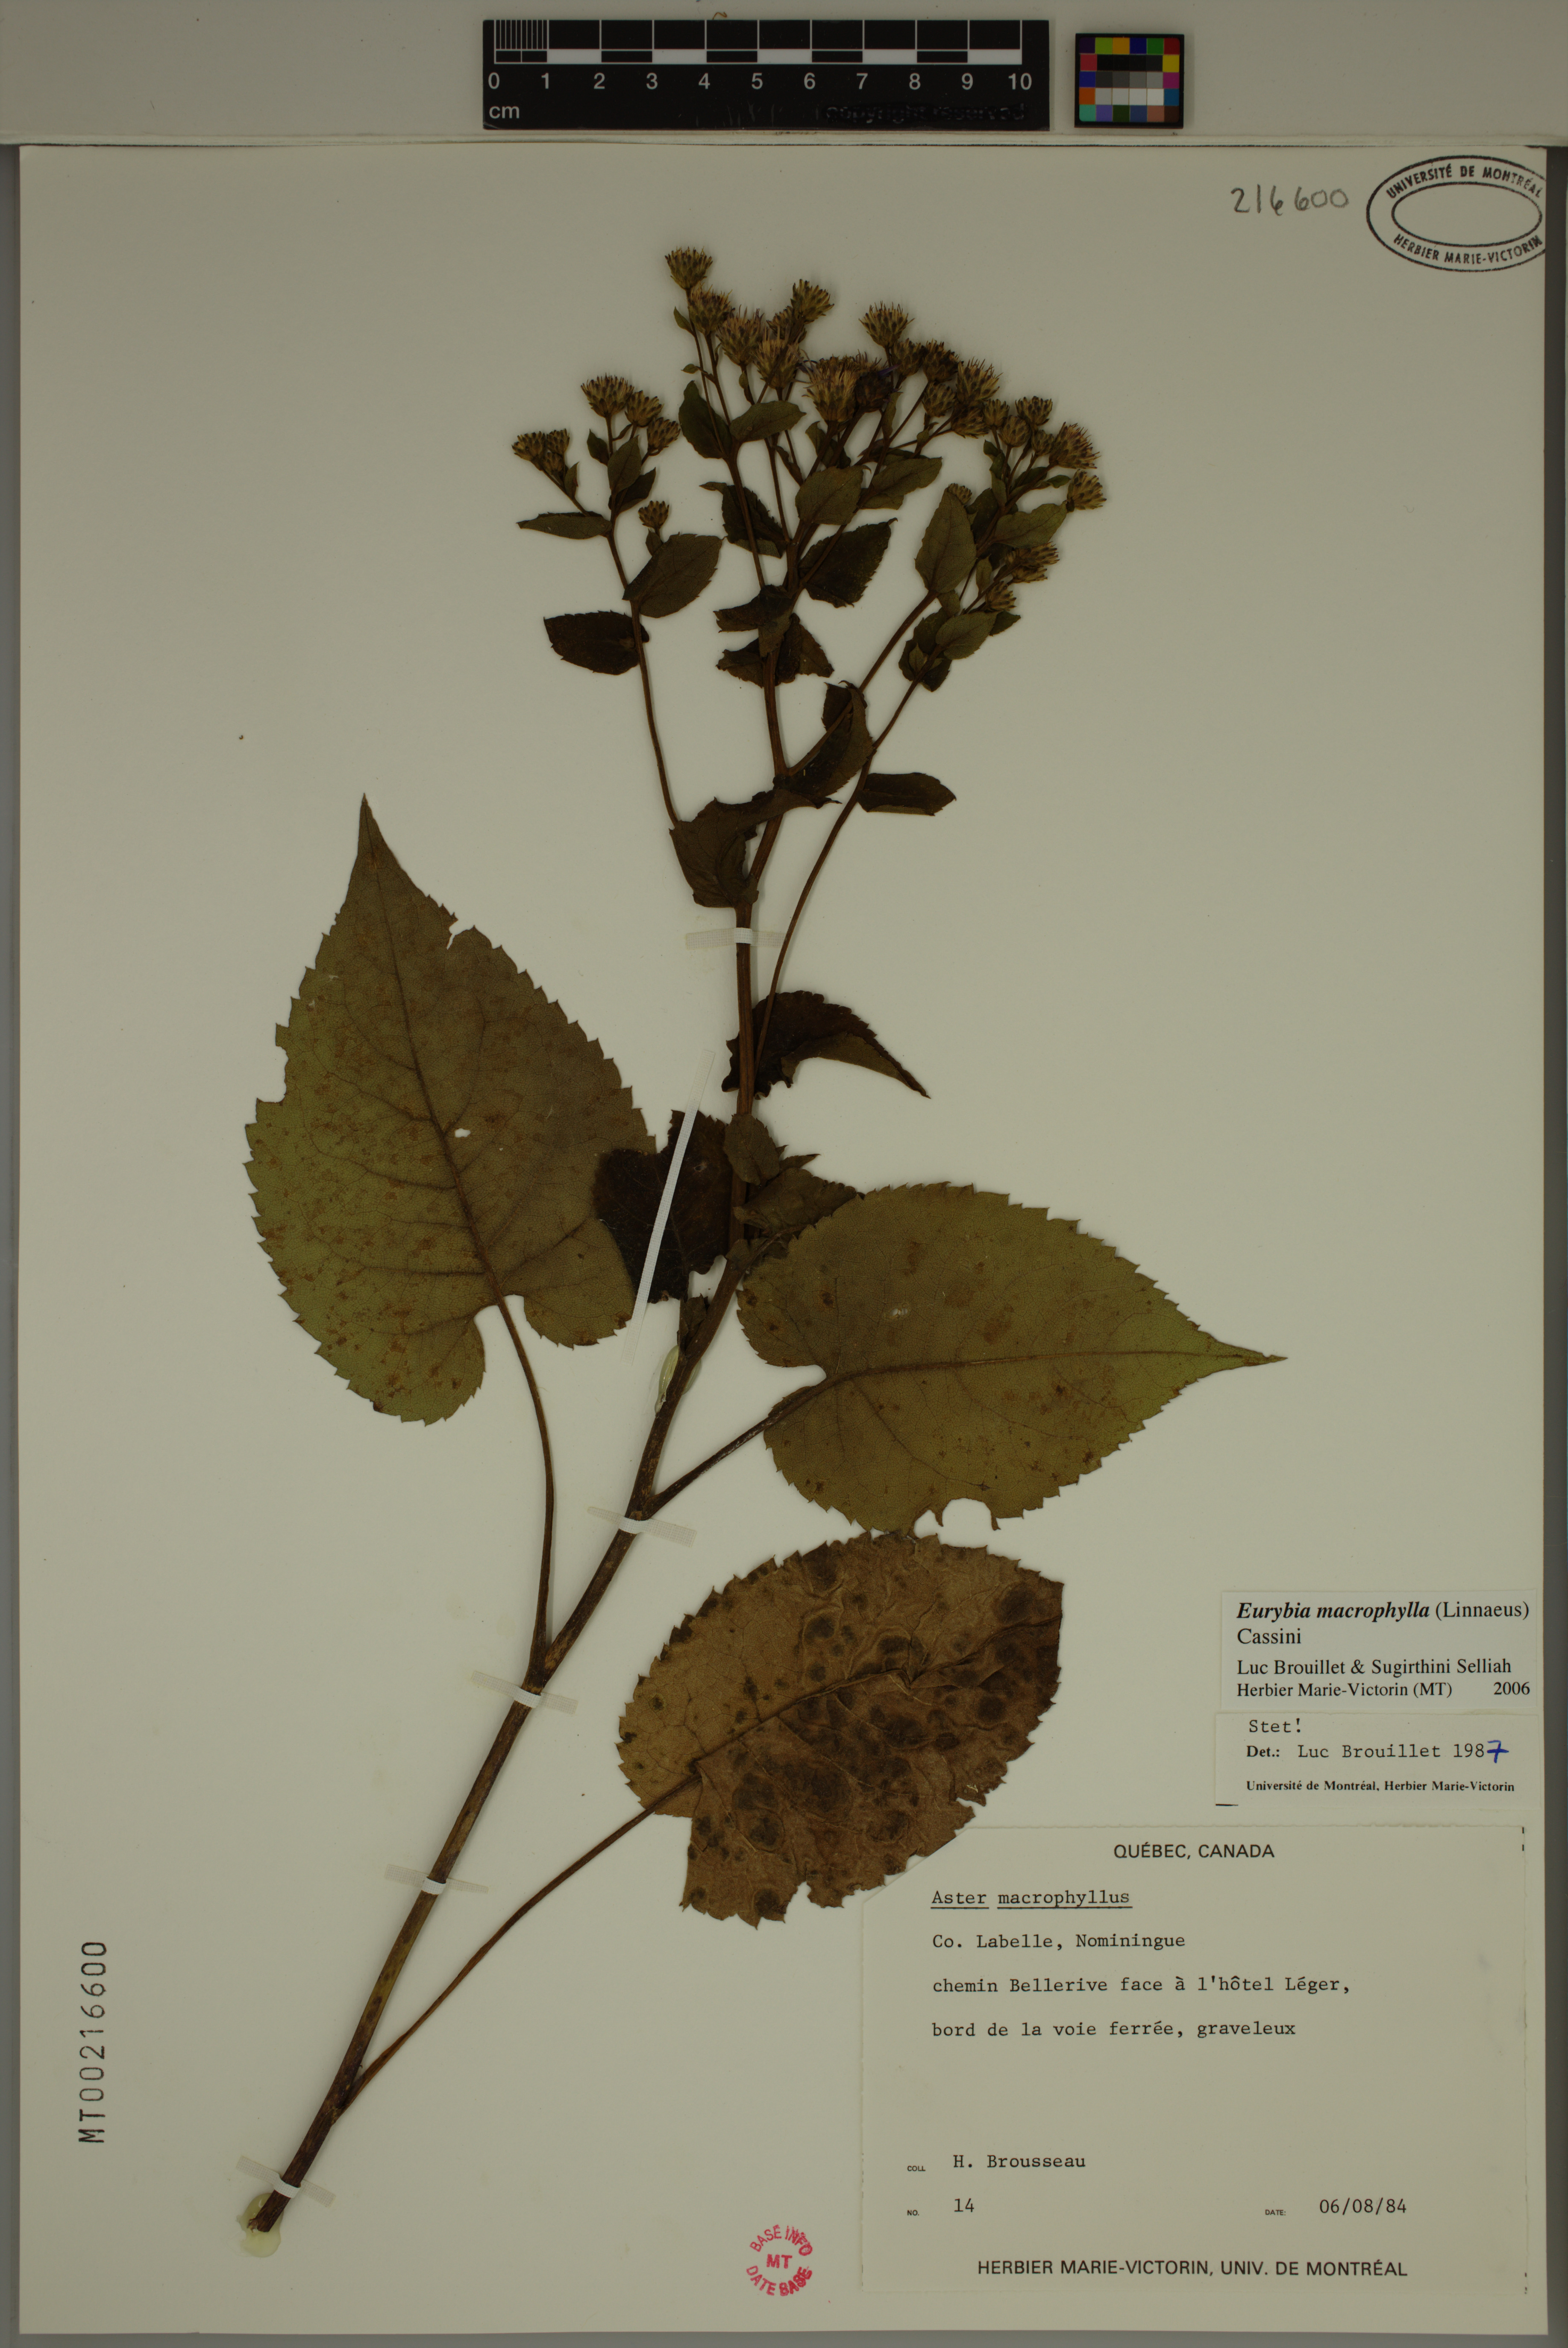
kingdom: Plantae
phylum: Tracheophyta
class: Magnoliopsida
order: Asterales
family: Asteraceae
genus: Eurybia
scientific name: Eurybia macrophylla
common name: Big-leaved aster
